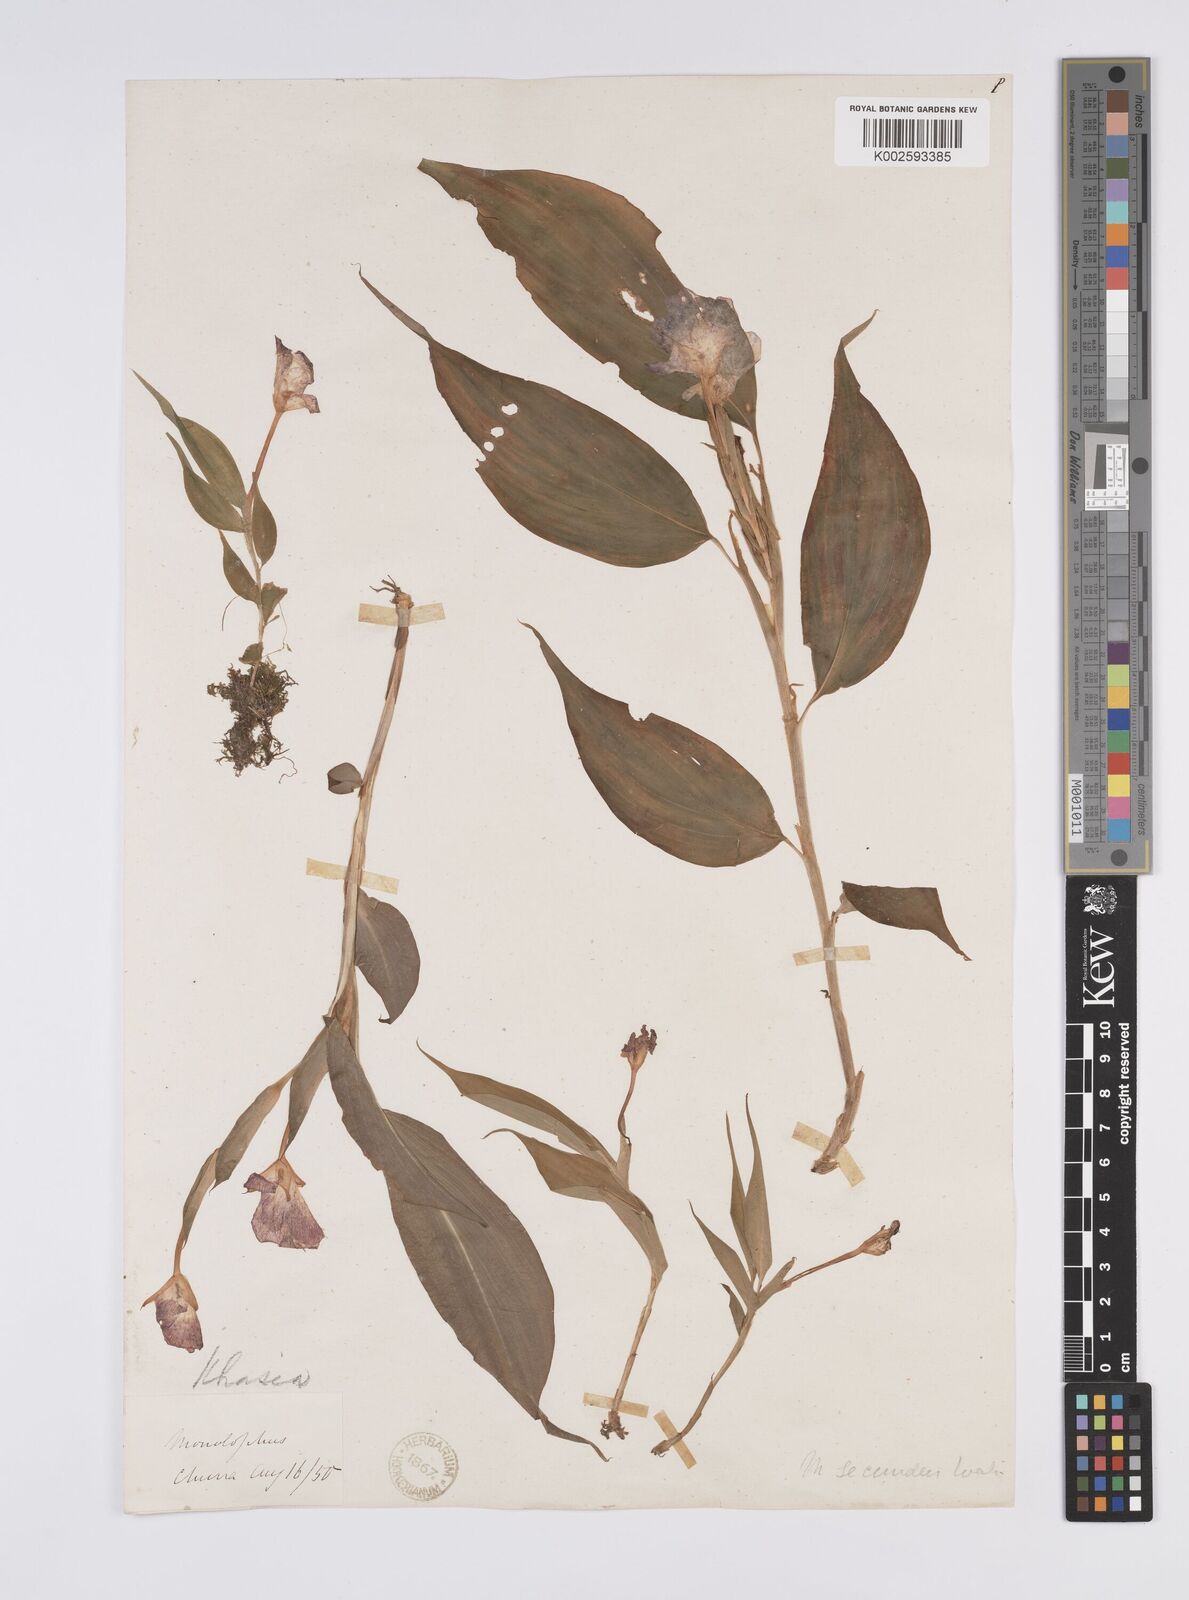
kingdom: Plantae
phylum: Tracheophyta
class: Liliopsida
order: Zingiberales
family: Zingiberaceae
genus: Caulokaempferia
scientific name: Caulokaempferia secunda
